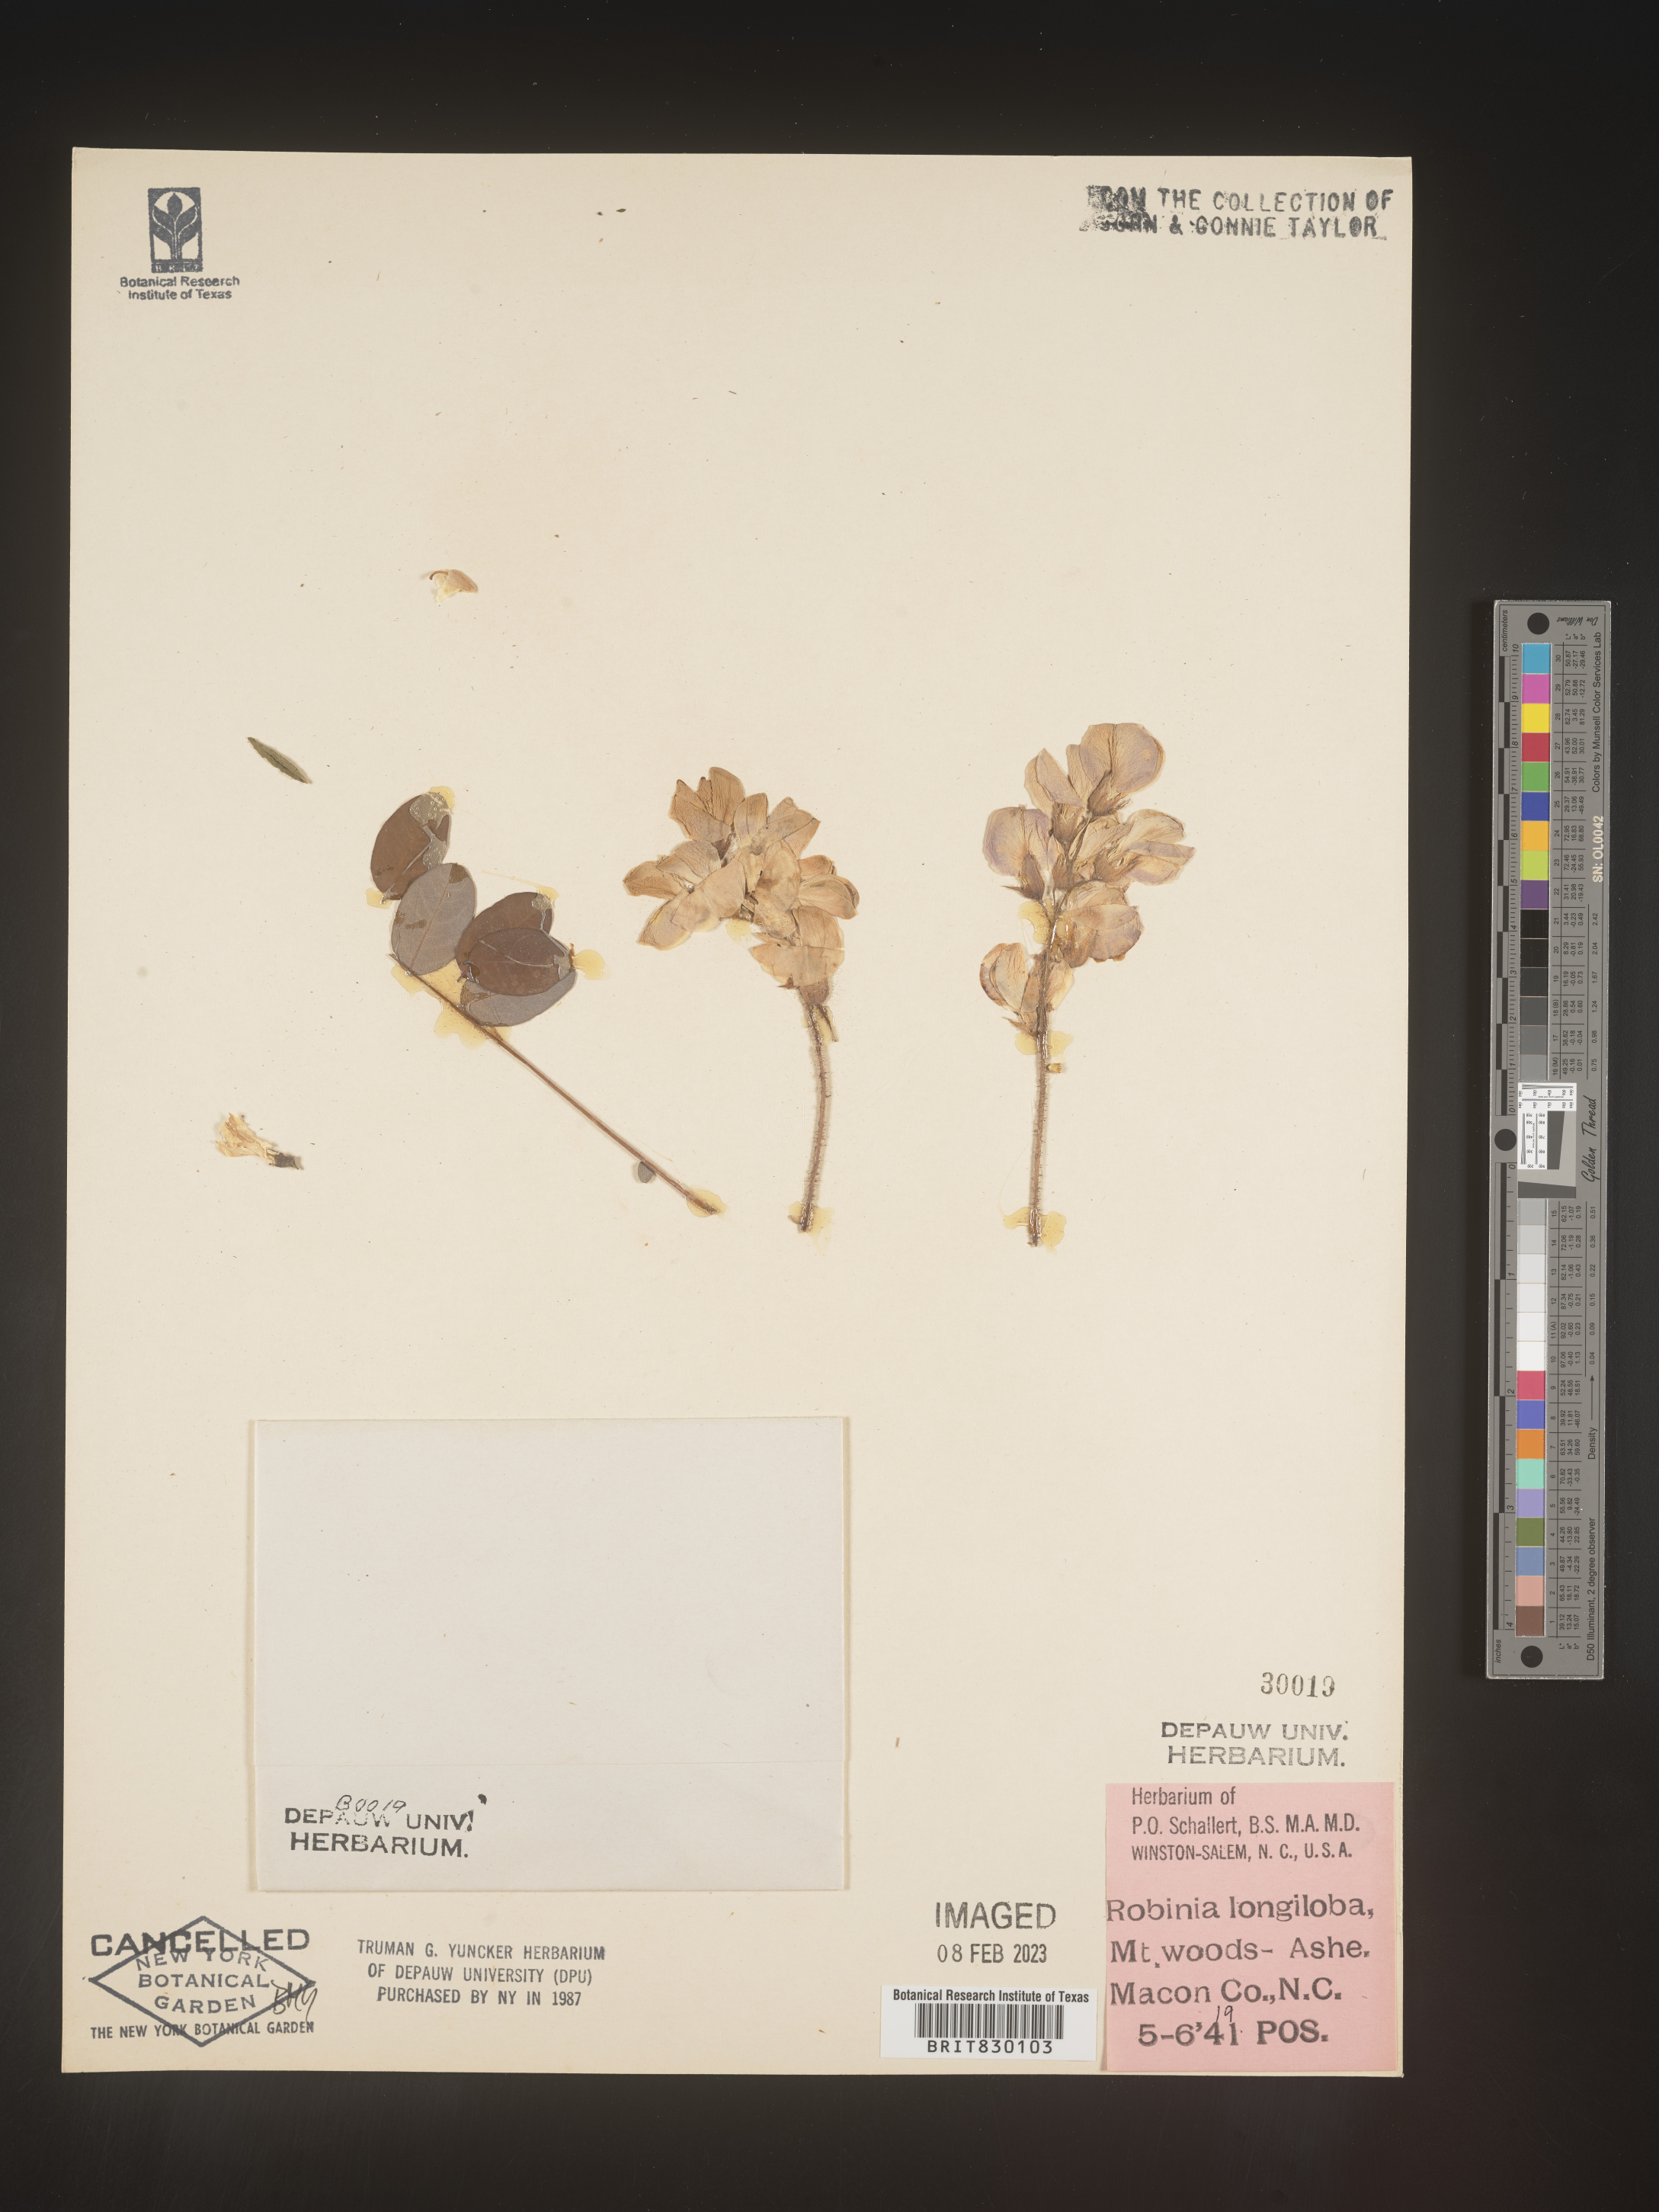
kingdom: Plantae
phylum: Tracheophyta
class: Magnoliopsida
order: Fabales
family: Fabaceae
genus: Robinia
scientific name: Robinia
